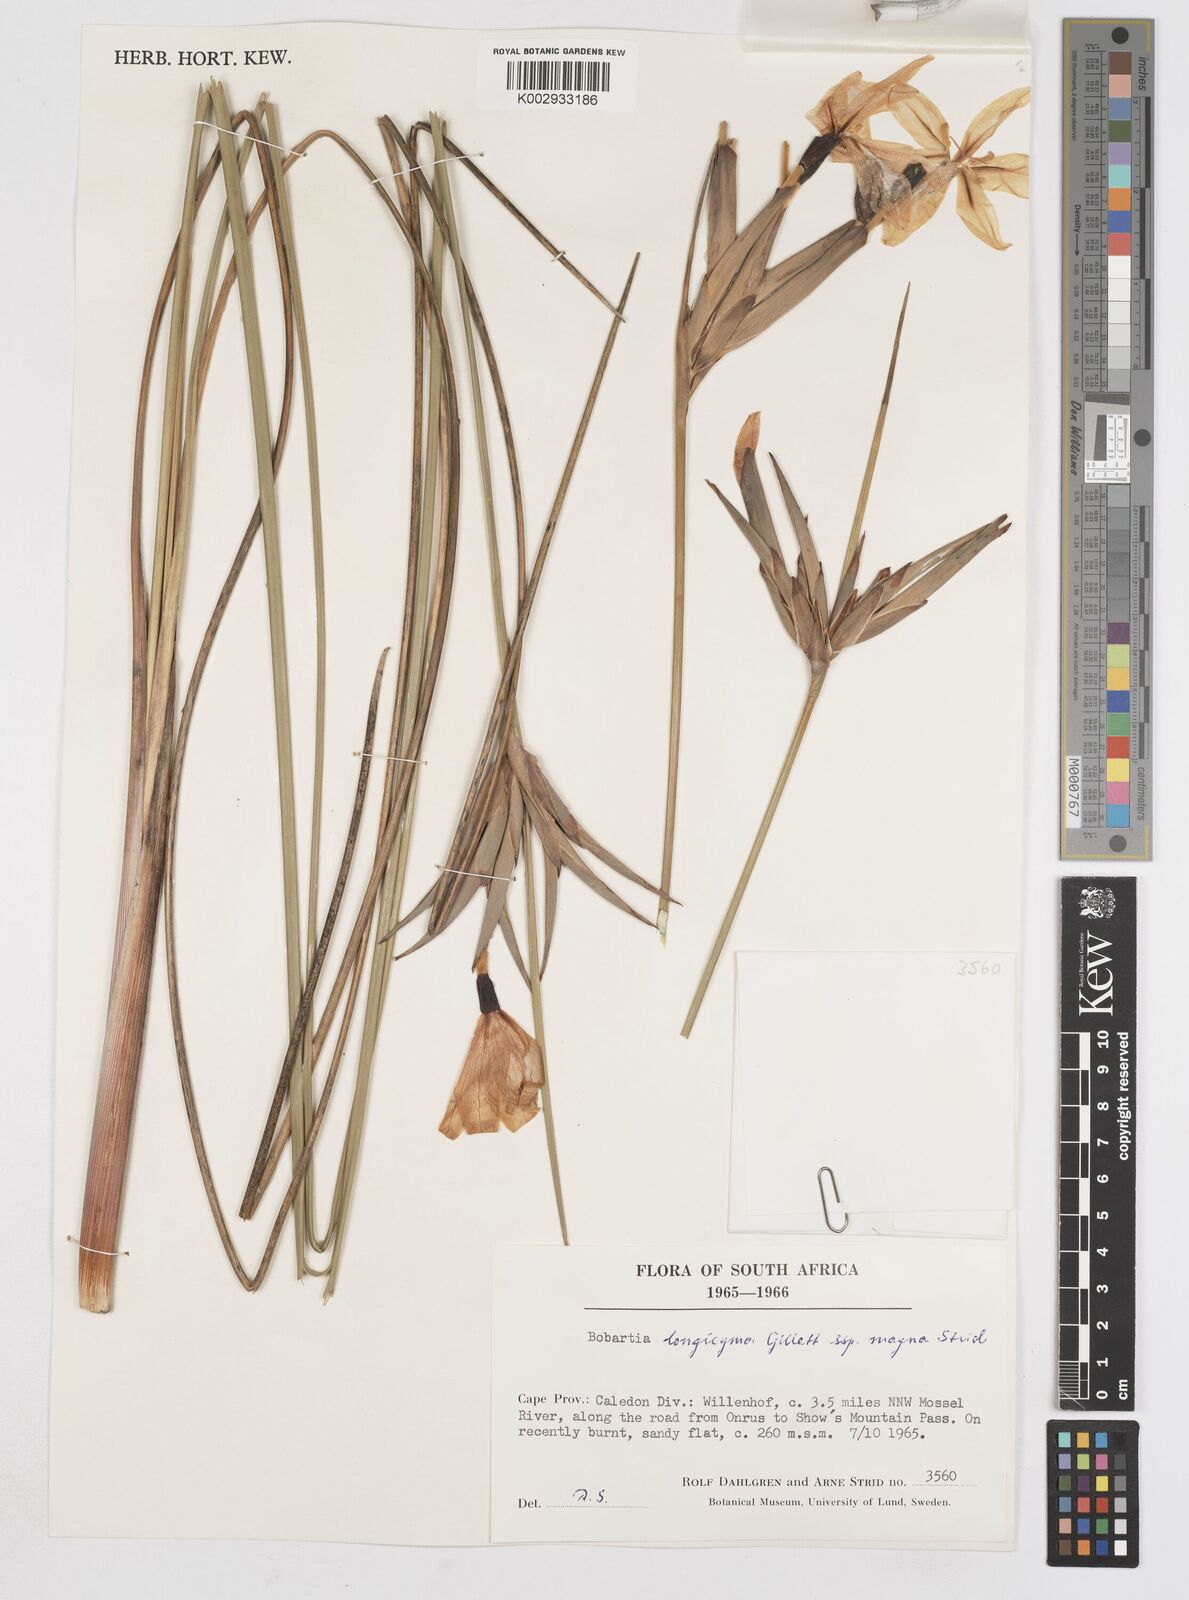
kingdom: Plantae
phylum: Tracheophyta
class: Liliopsida
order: Asparagales
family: Iridaceae
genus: Bobartia
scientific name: Bobartia longicyma
